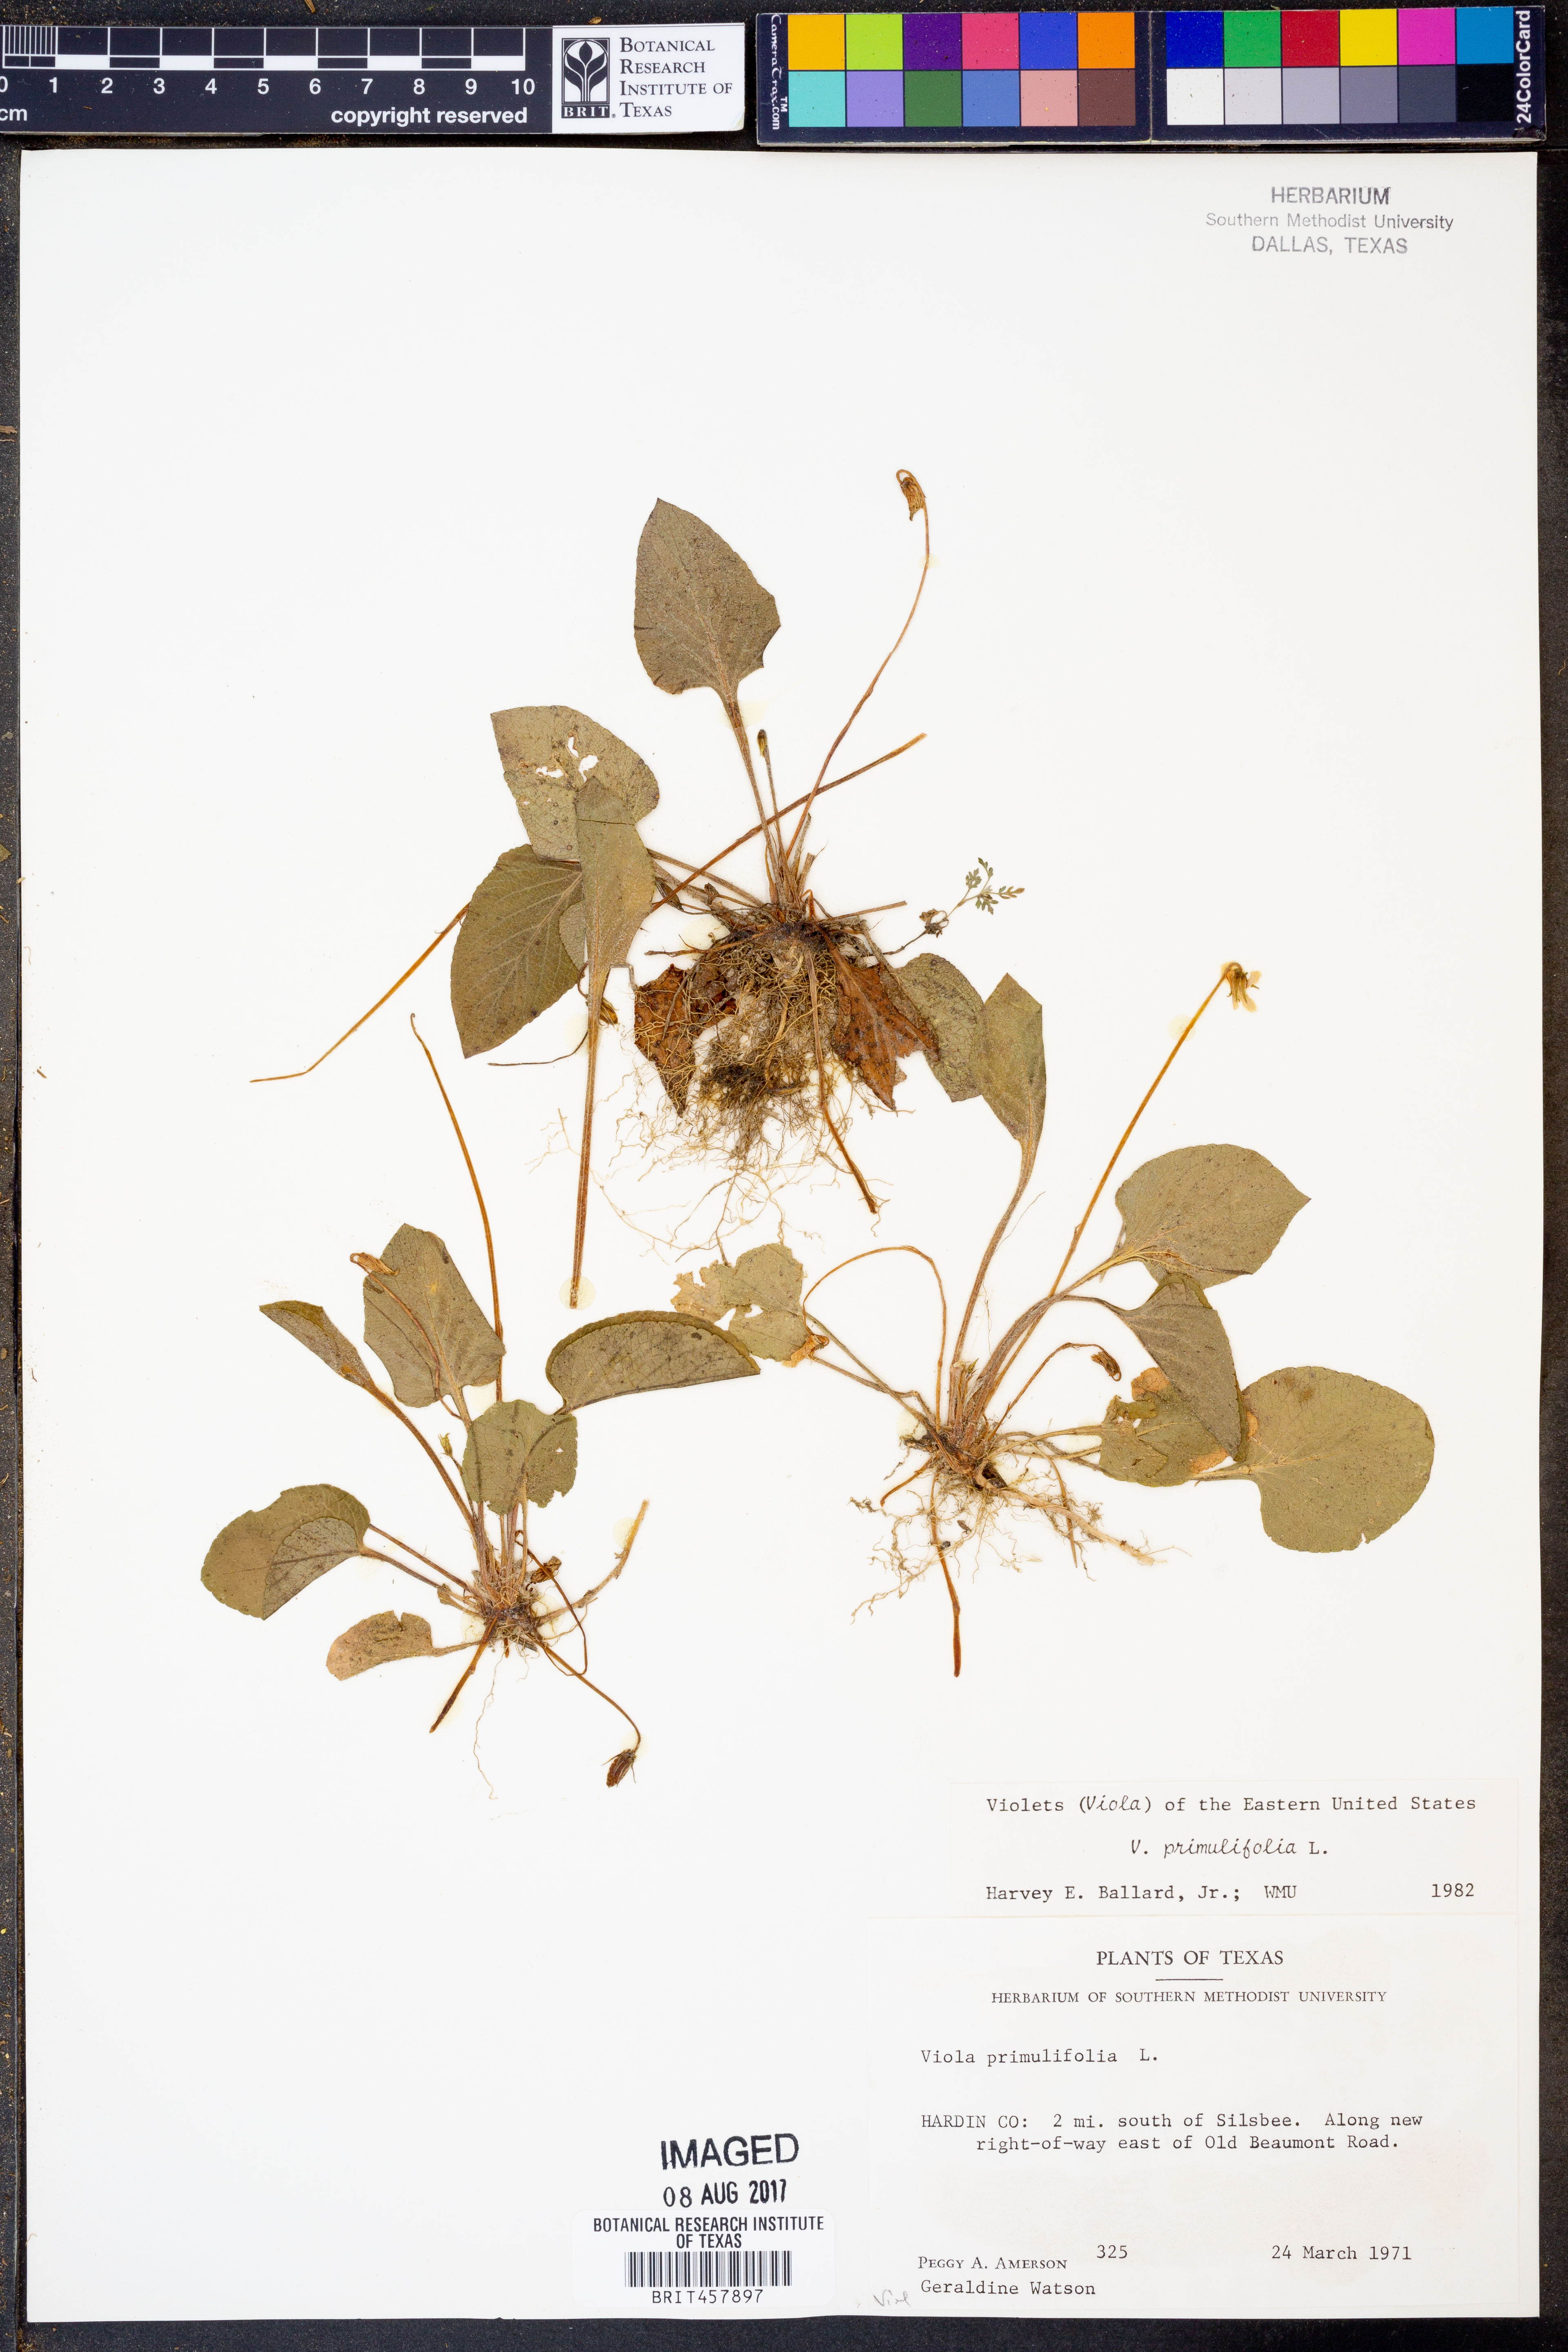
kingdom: Plantae
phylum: Tracheophyta
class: Magnoliopsida
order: Malpighiales
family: Violaceae
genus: Viola
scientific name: Viola primulifolia
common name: Primrose-leaf violet
